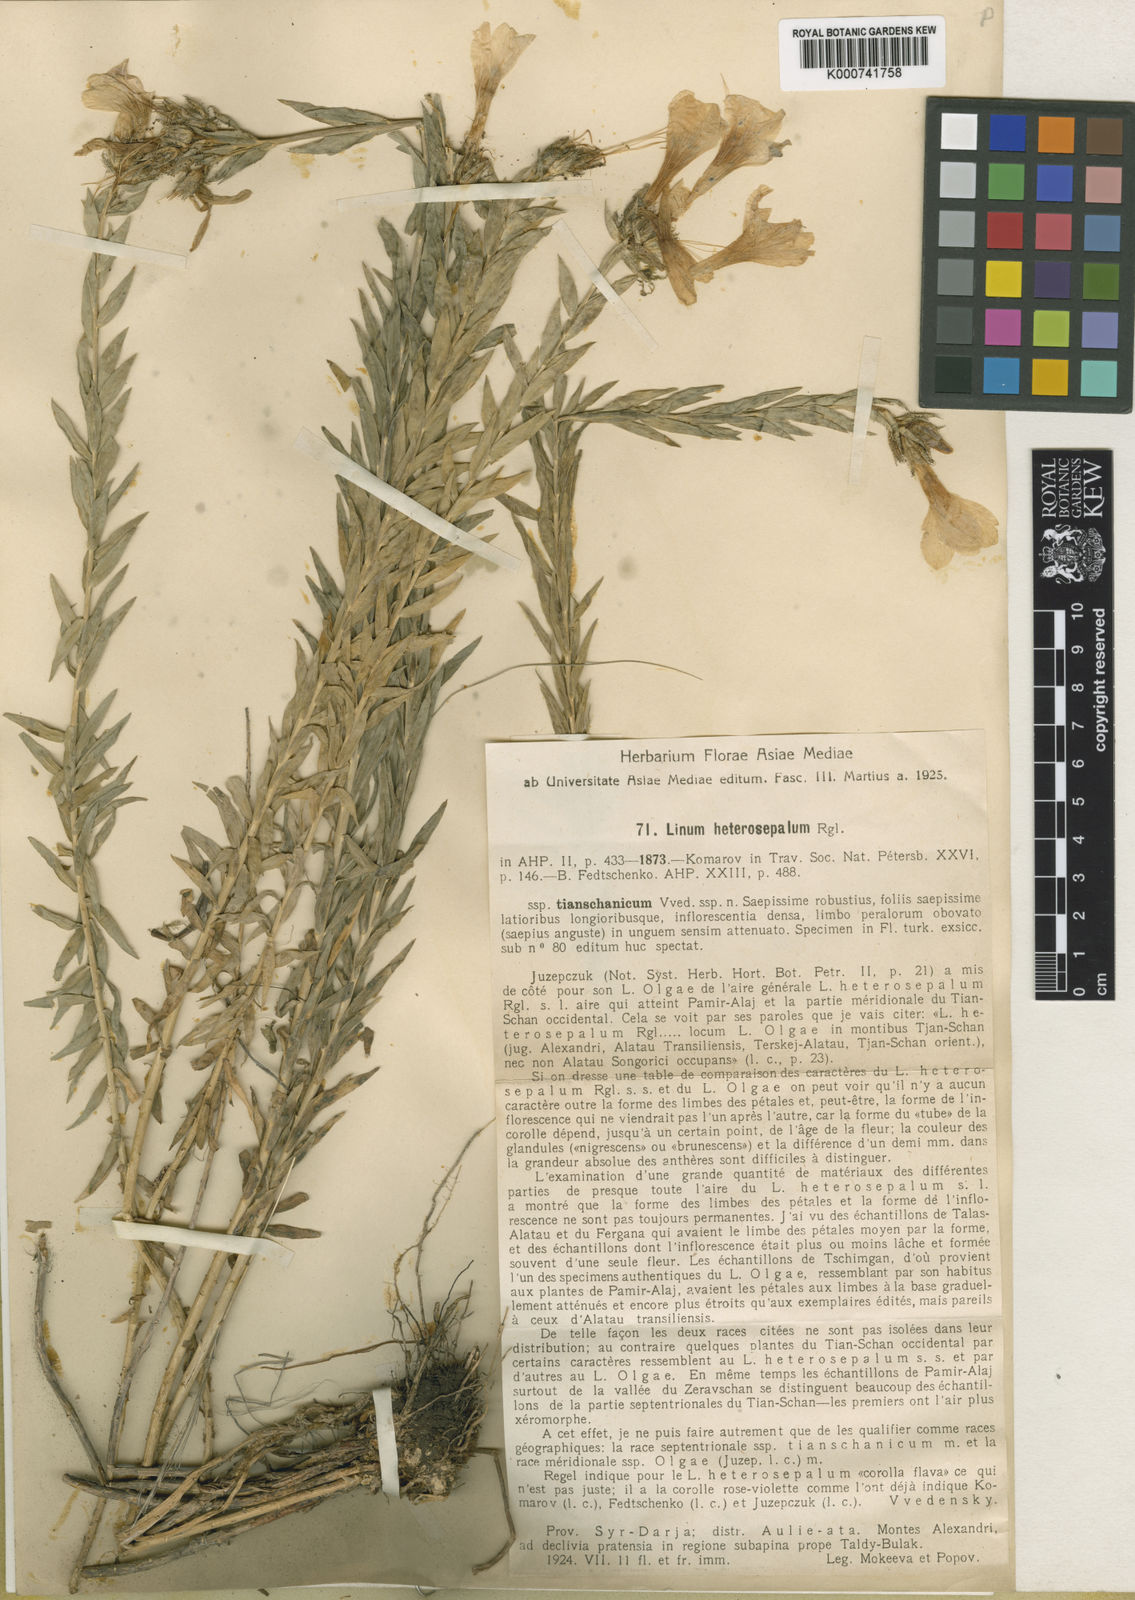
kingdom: Plantae
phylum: Tracheophyta
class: Magnoliopsida
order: Malpighiales
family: Linaceae
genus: Linum
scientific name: Linum heterosepalum
